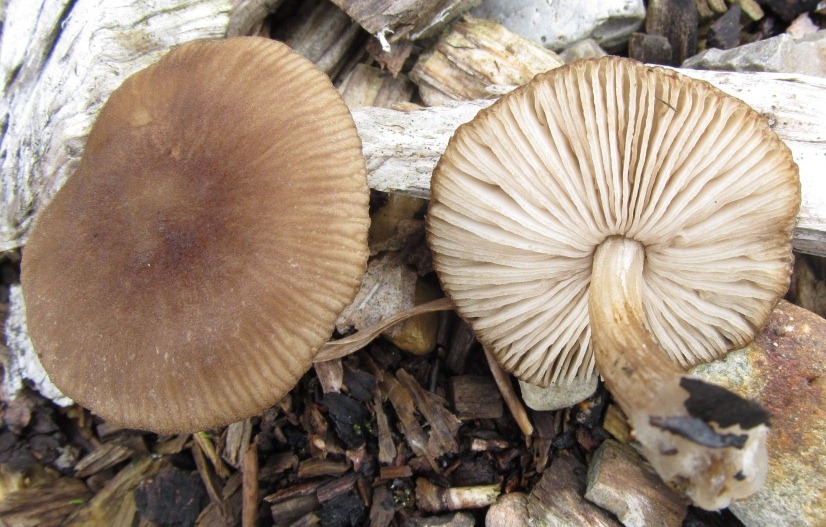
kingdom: Fungi
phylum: Basidiomycota
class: Agaricomycetes
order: Agaricales
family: Pluteaceae
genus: Pluteus
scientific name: Pluteus
